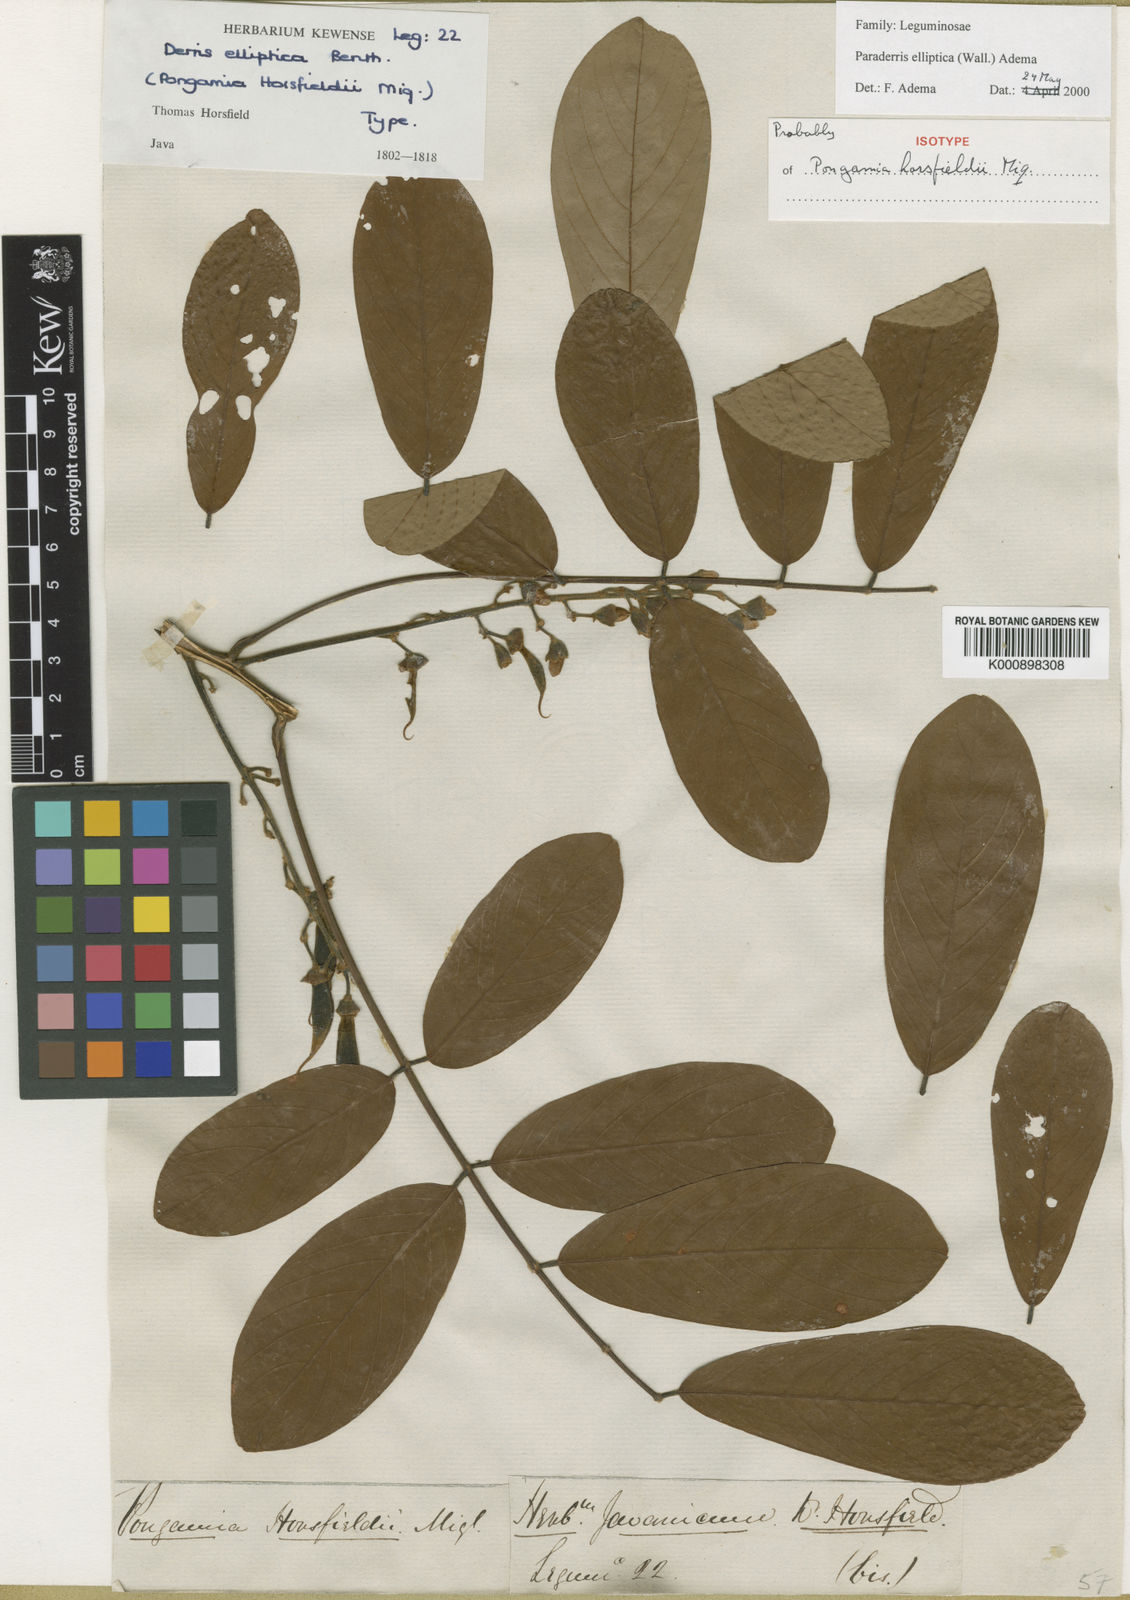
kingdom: Plantae
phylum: Tracheophyta
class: Magnoliopsida
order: Fabales
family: Fabaceae
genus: Derris
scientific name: Derris elliptica
